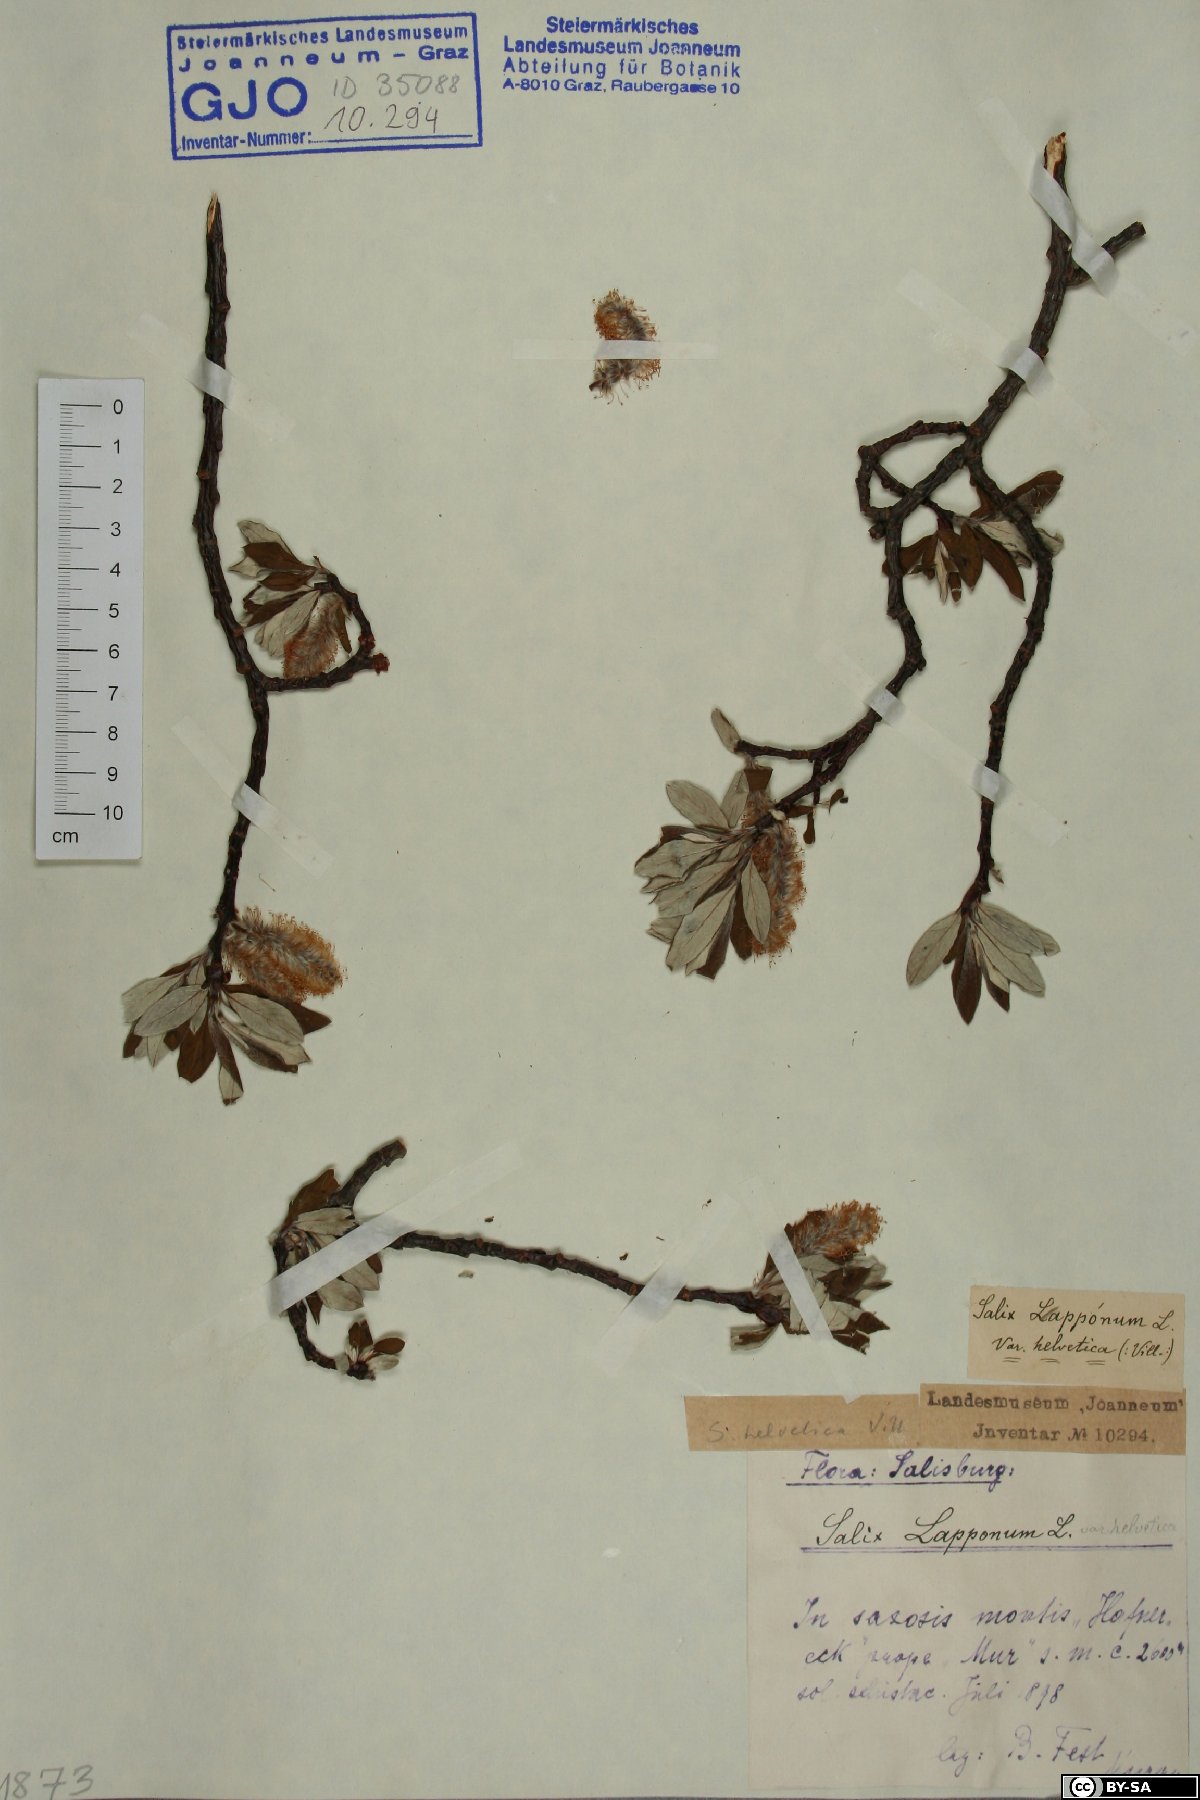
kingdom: Plantae
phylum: Tracheophyta
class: Magnoliopsida
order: Malpighiales
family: Salicaceae
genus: Salix
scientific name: Salix helvetica
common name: Swiss willow
